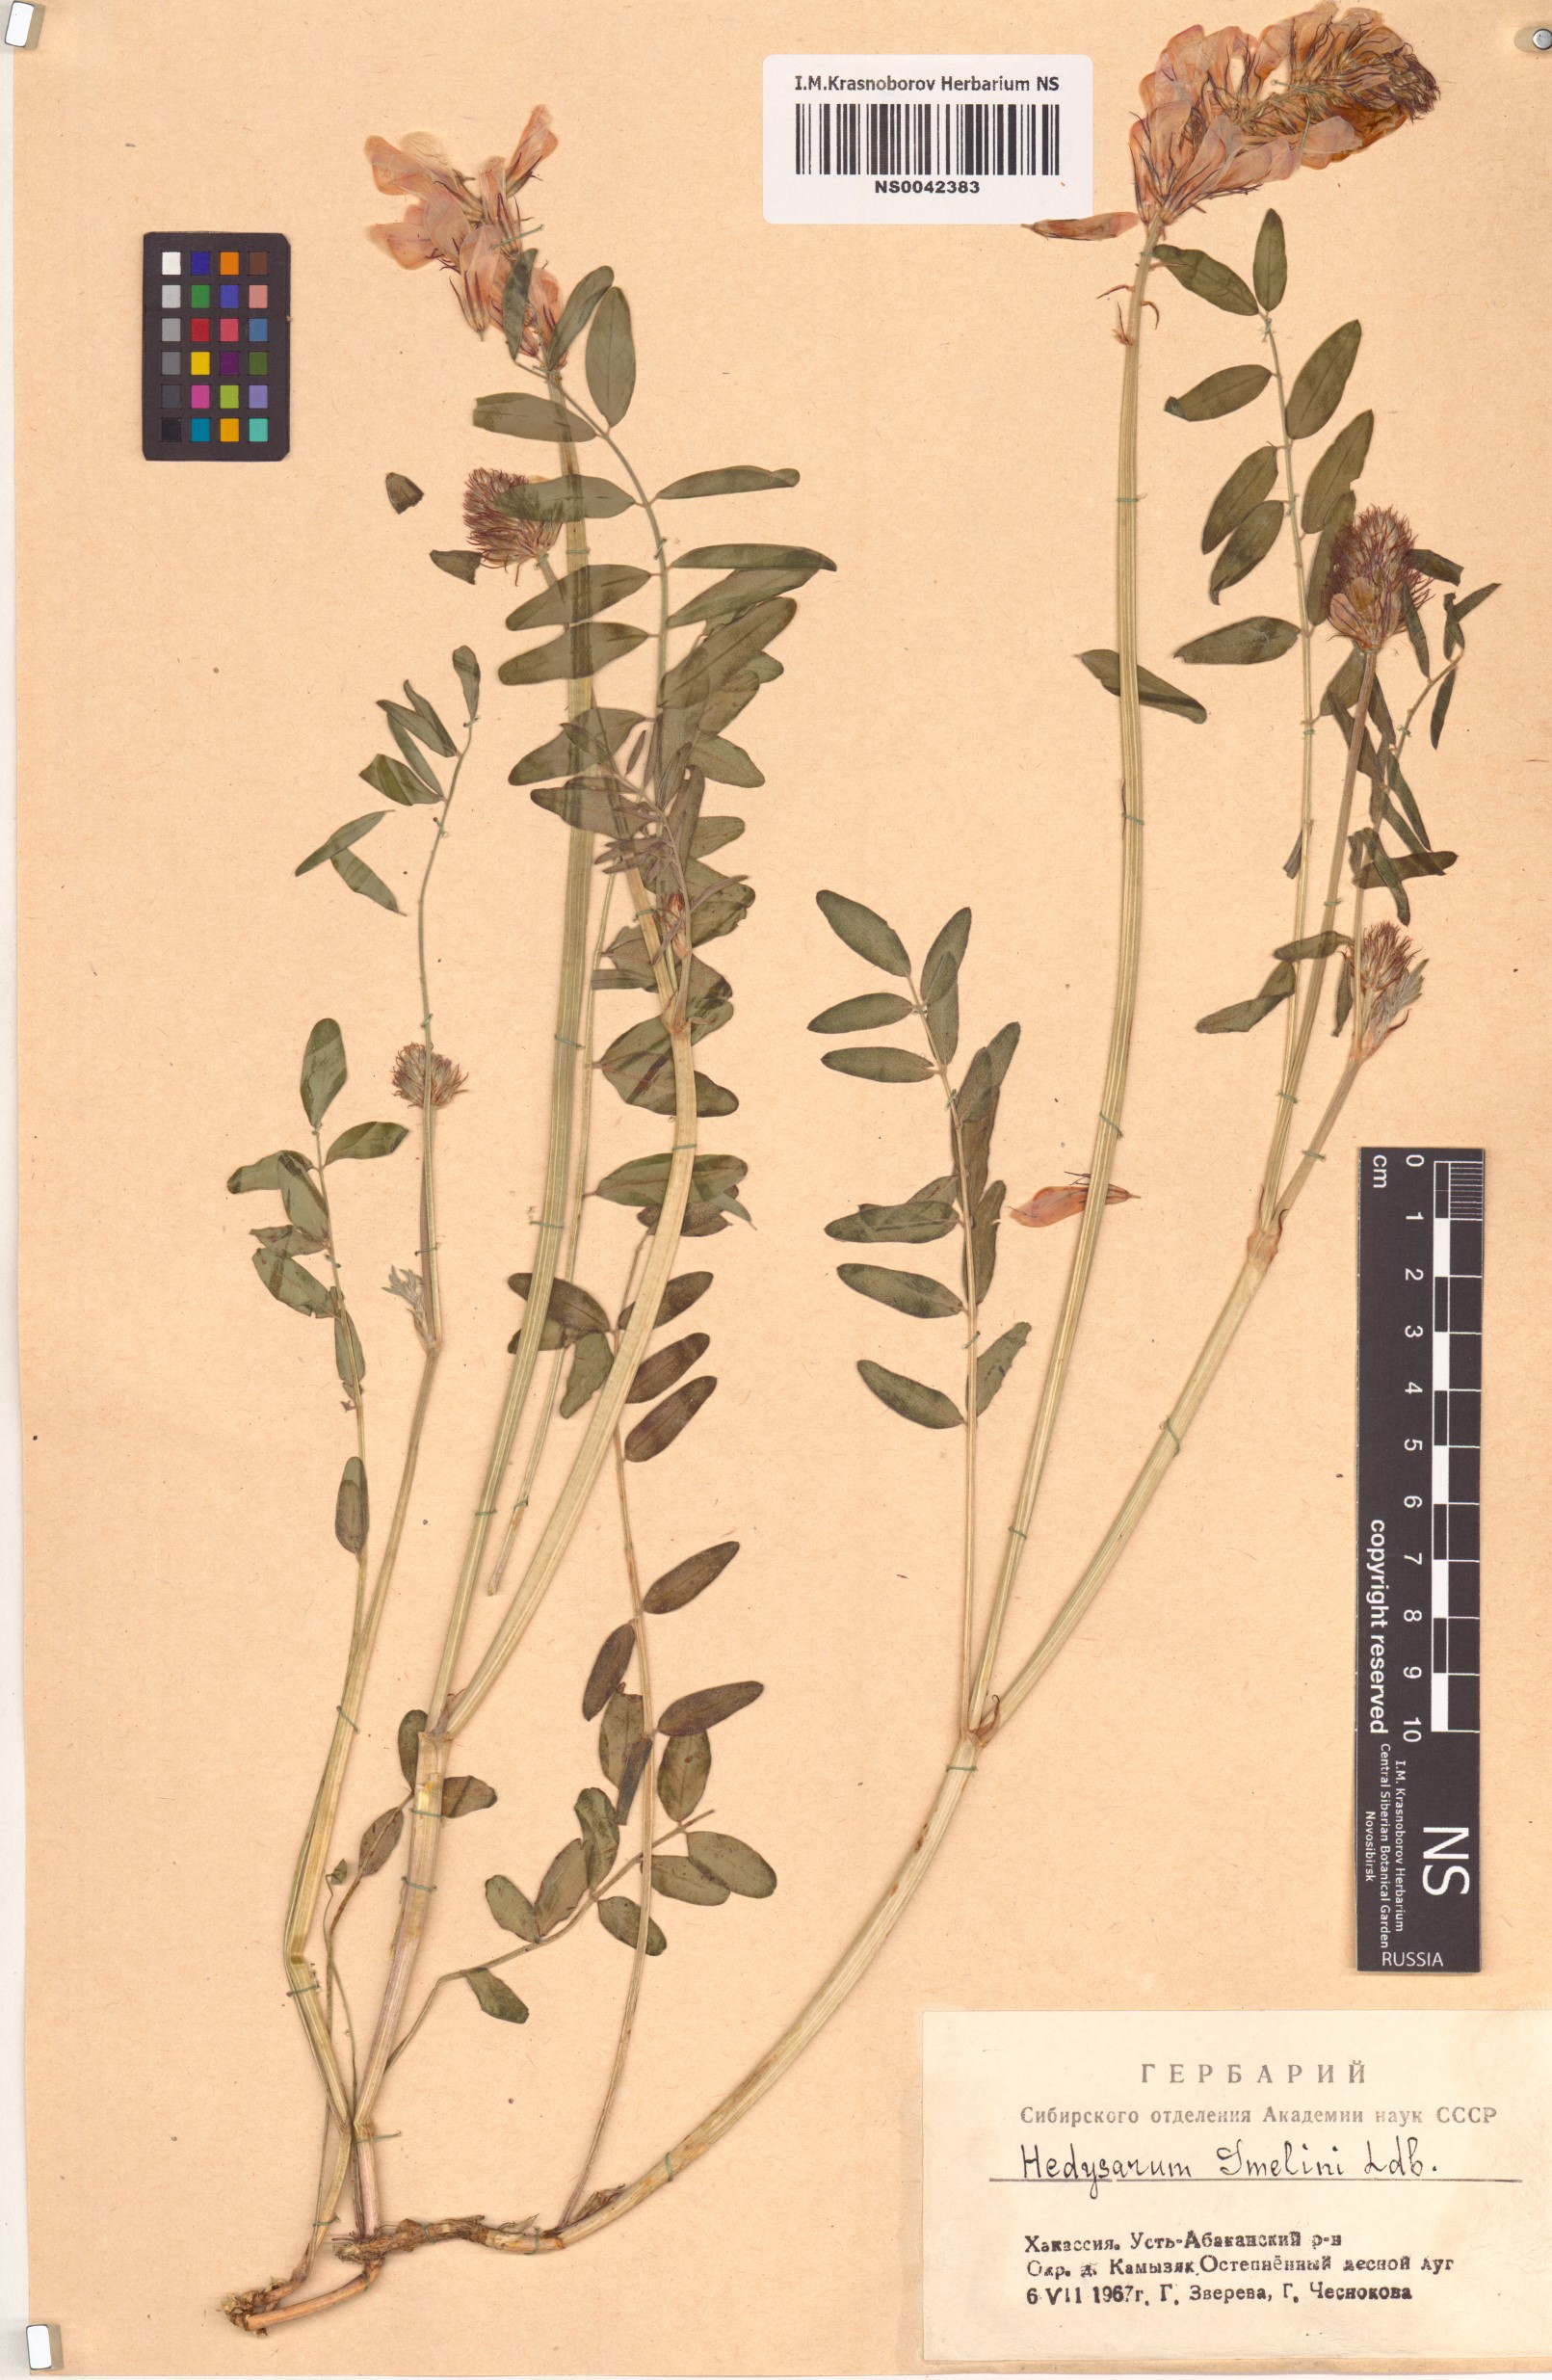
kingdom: Plantae
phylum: Tracheophyta
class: Magnoliopsida
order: Fabales
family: Fabaceae
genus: Hedysarum
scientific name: Hedysarum gmelinii
